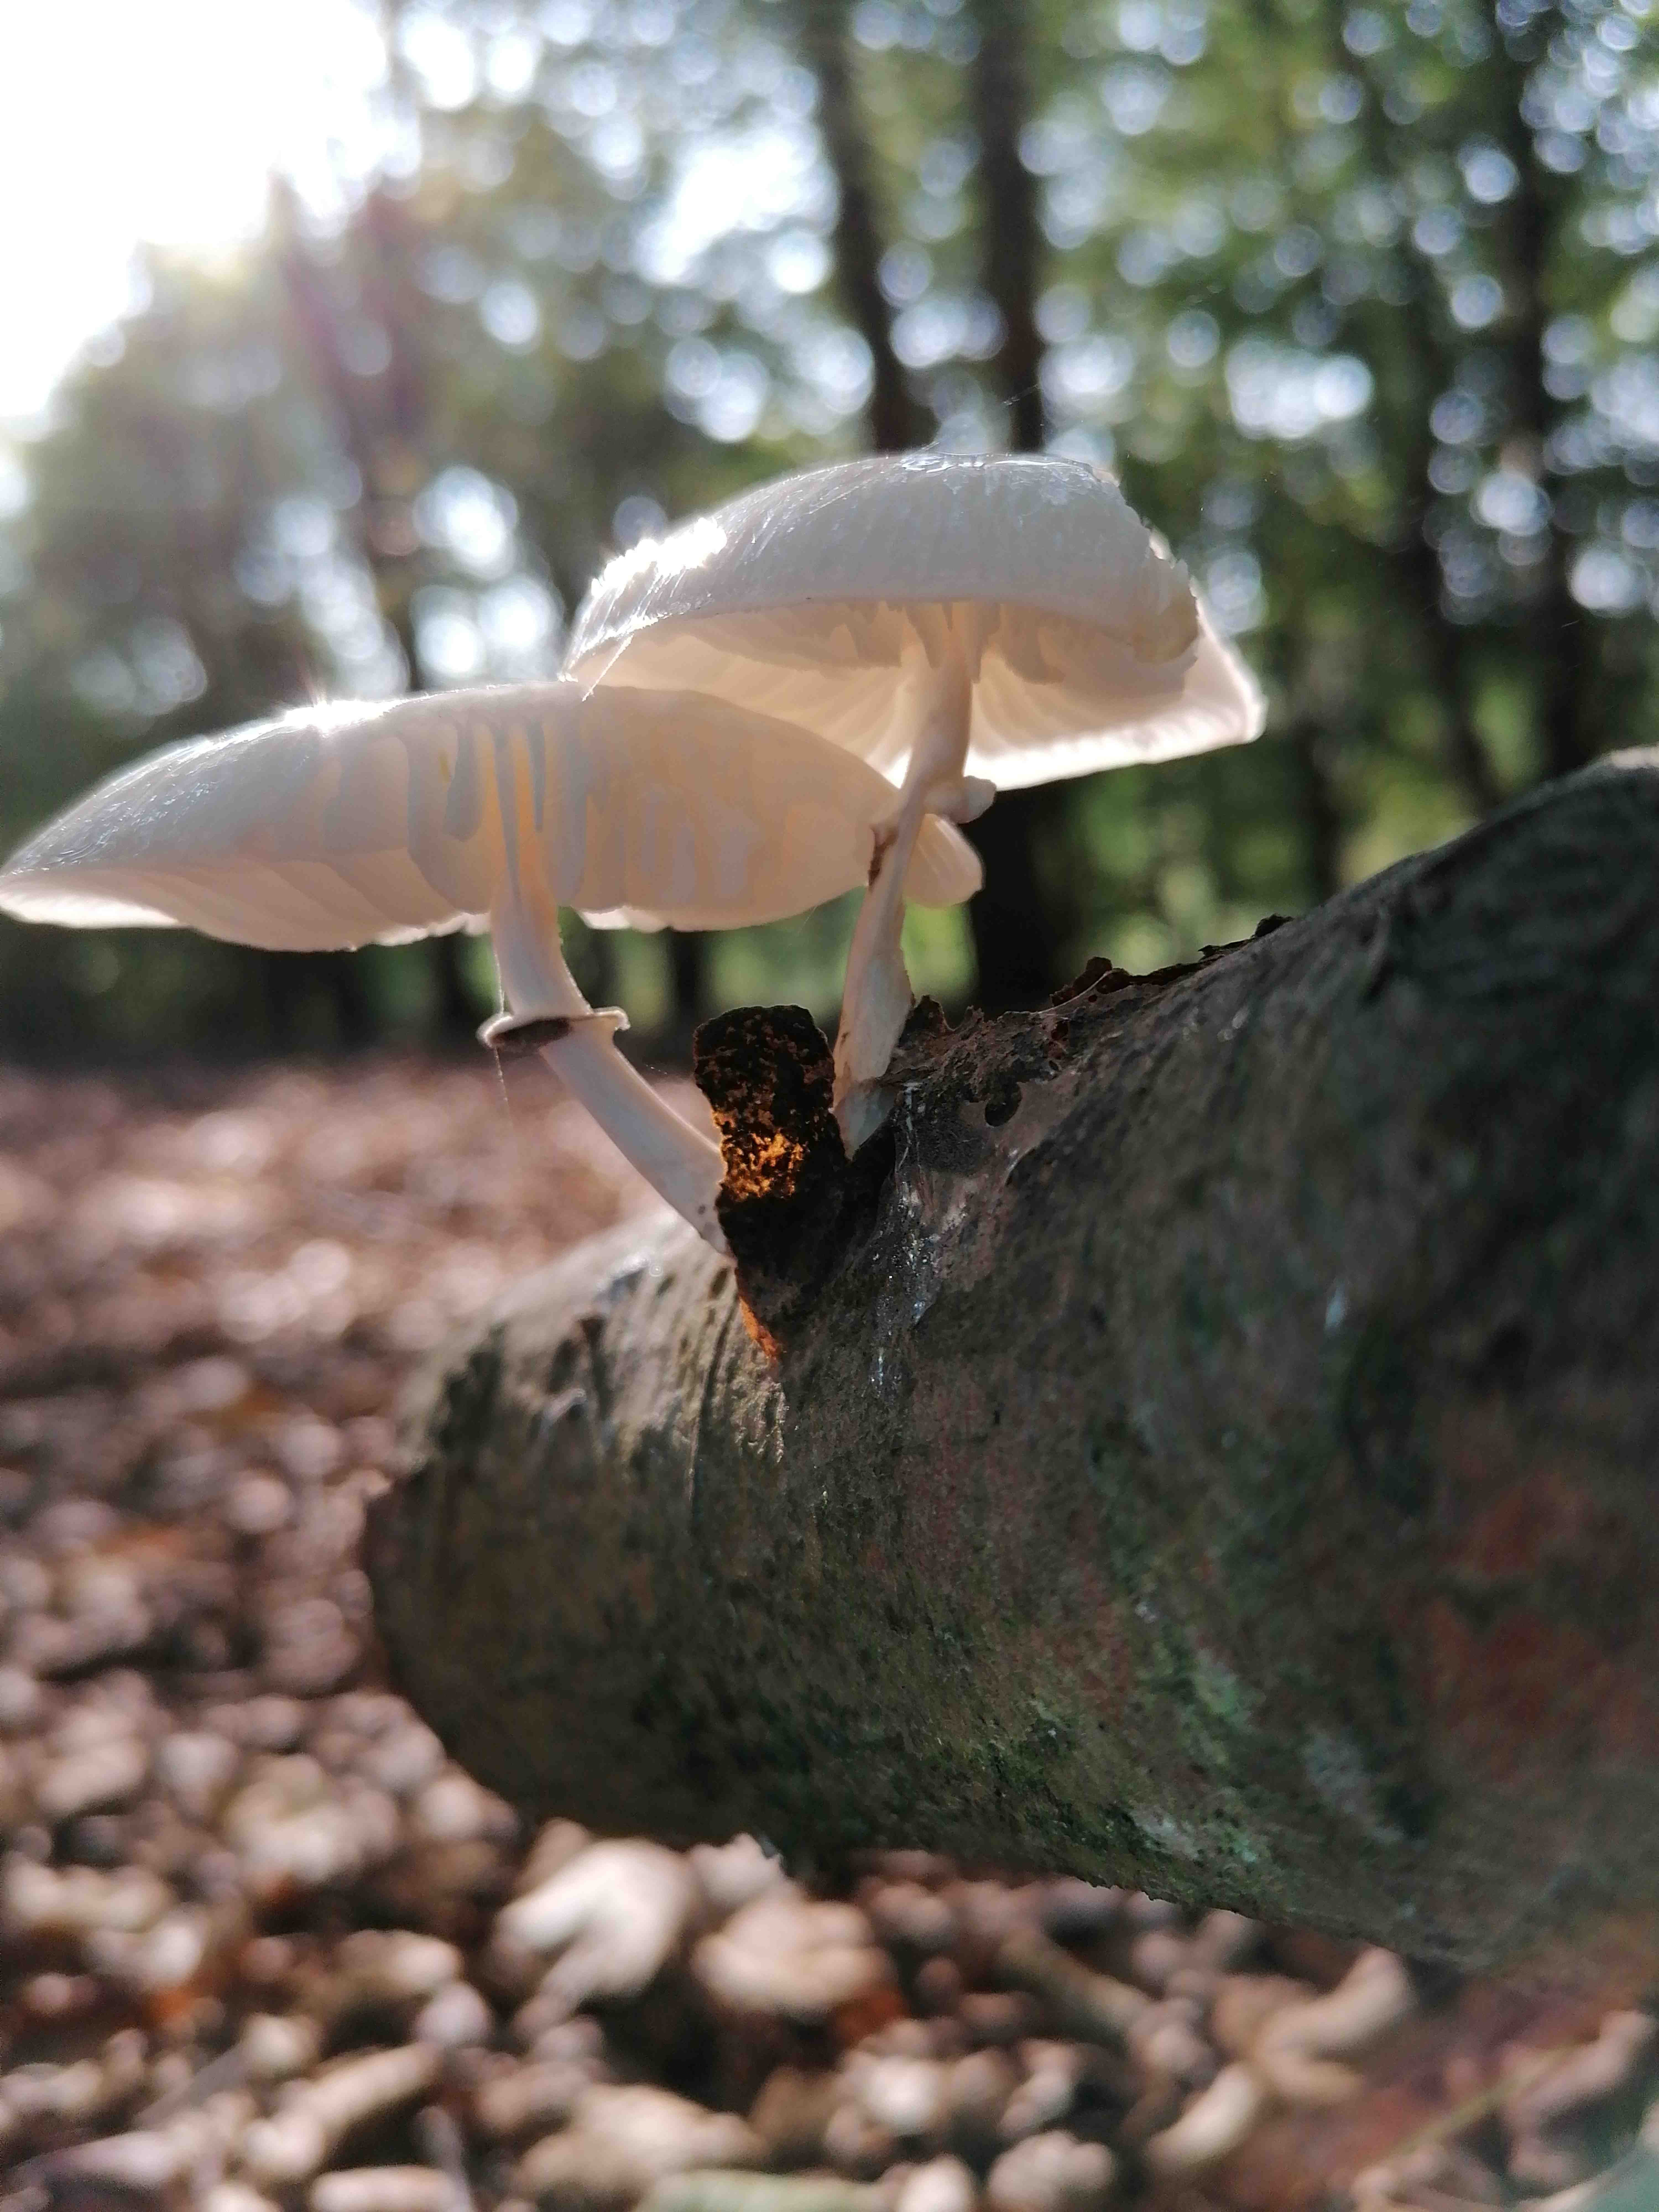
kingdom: Fungi
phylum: Basidiomycota
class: Agaricomycetes
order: Agaricales
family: Physalacriaceae
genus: Mucidula
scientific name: Mucidula mucida
